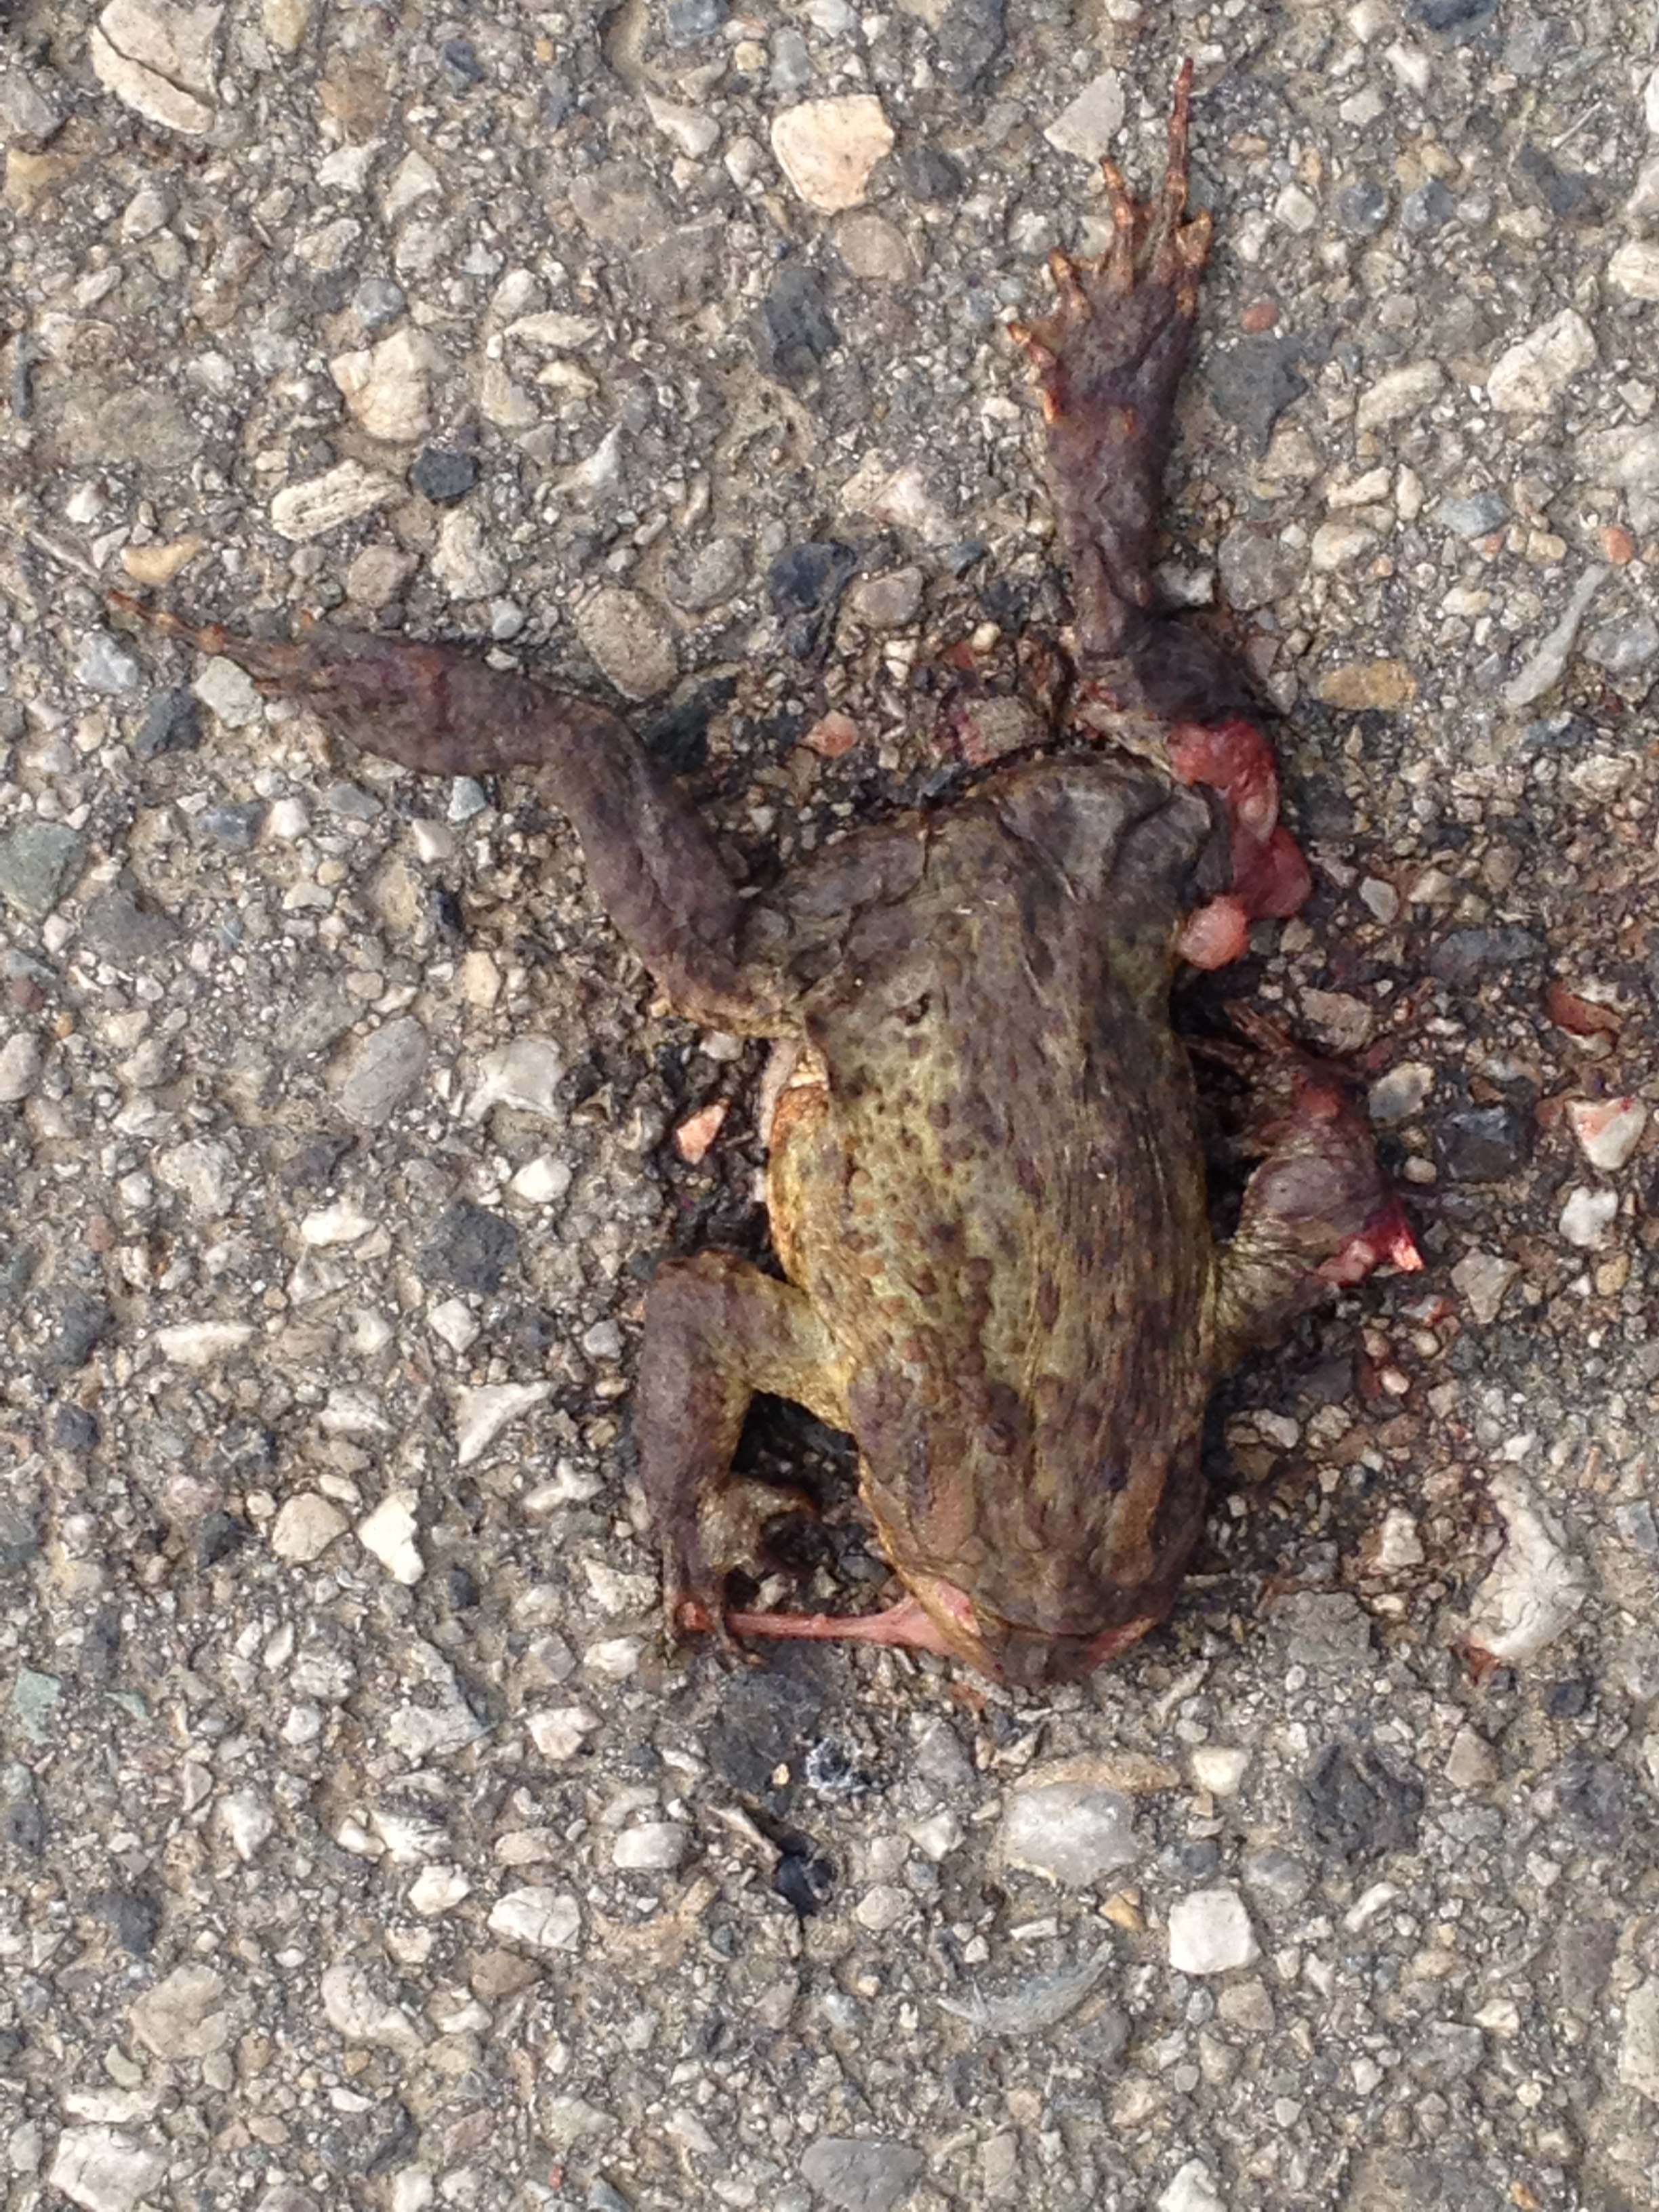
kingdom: Animalia
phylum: Chordata
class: Amphibia
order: Anura
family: Bufonidae
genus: Bufo
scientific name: Bufo bufo
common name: Common toad
